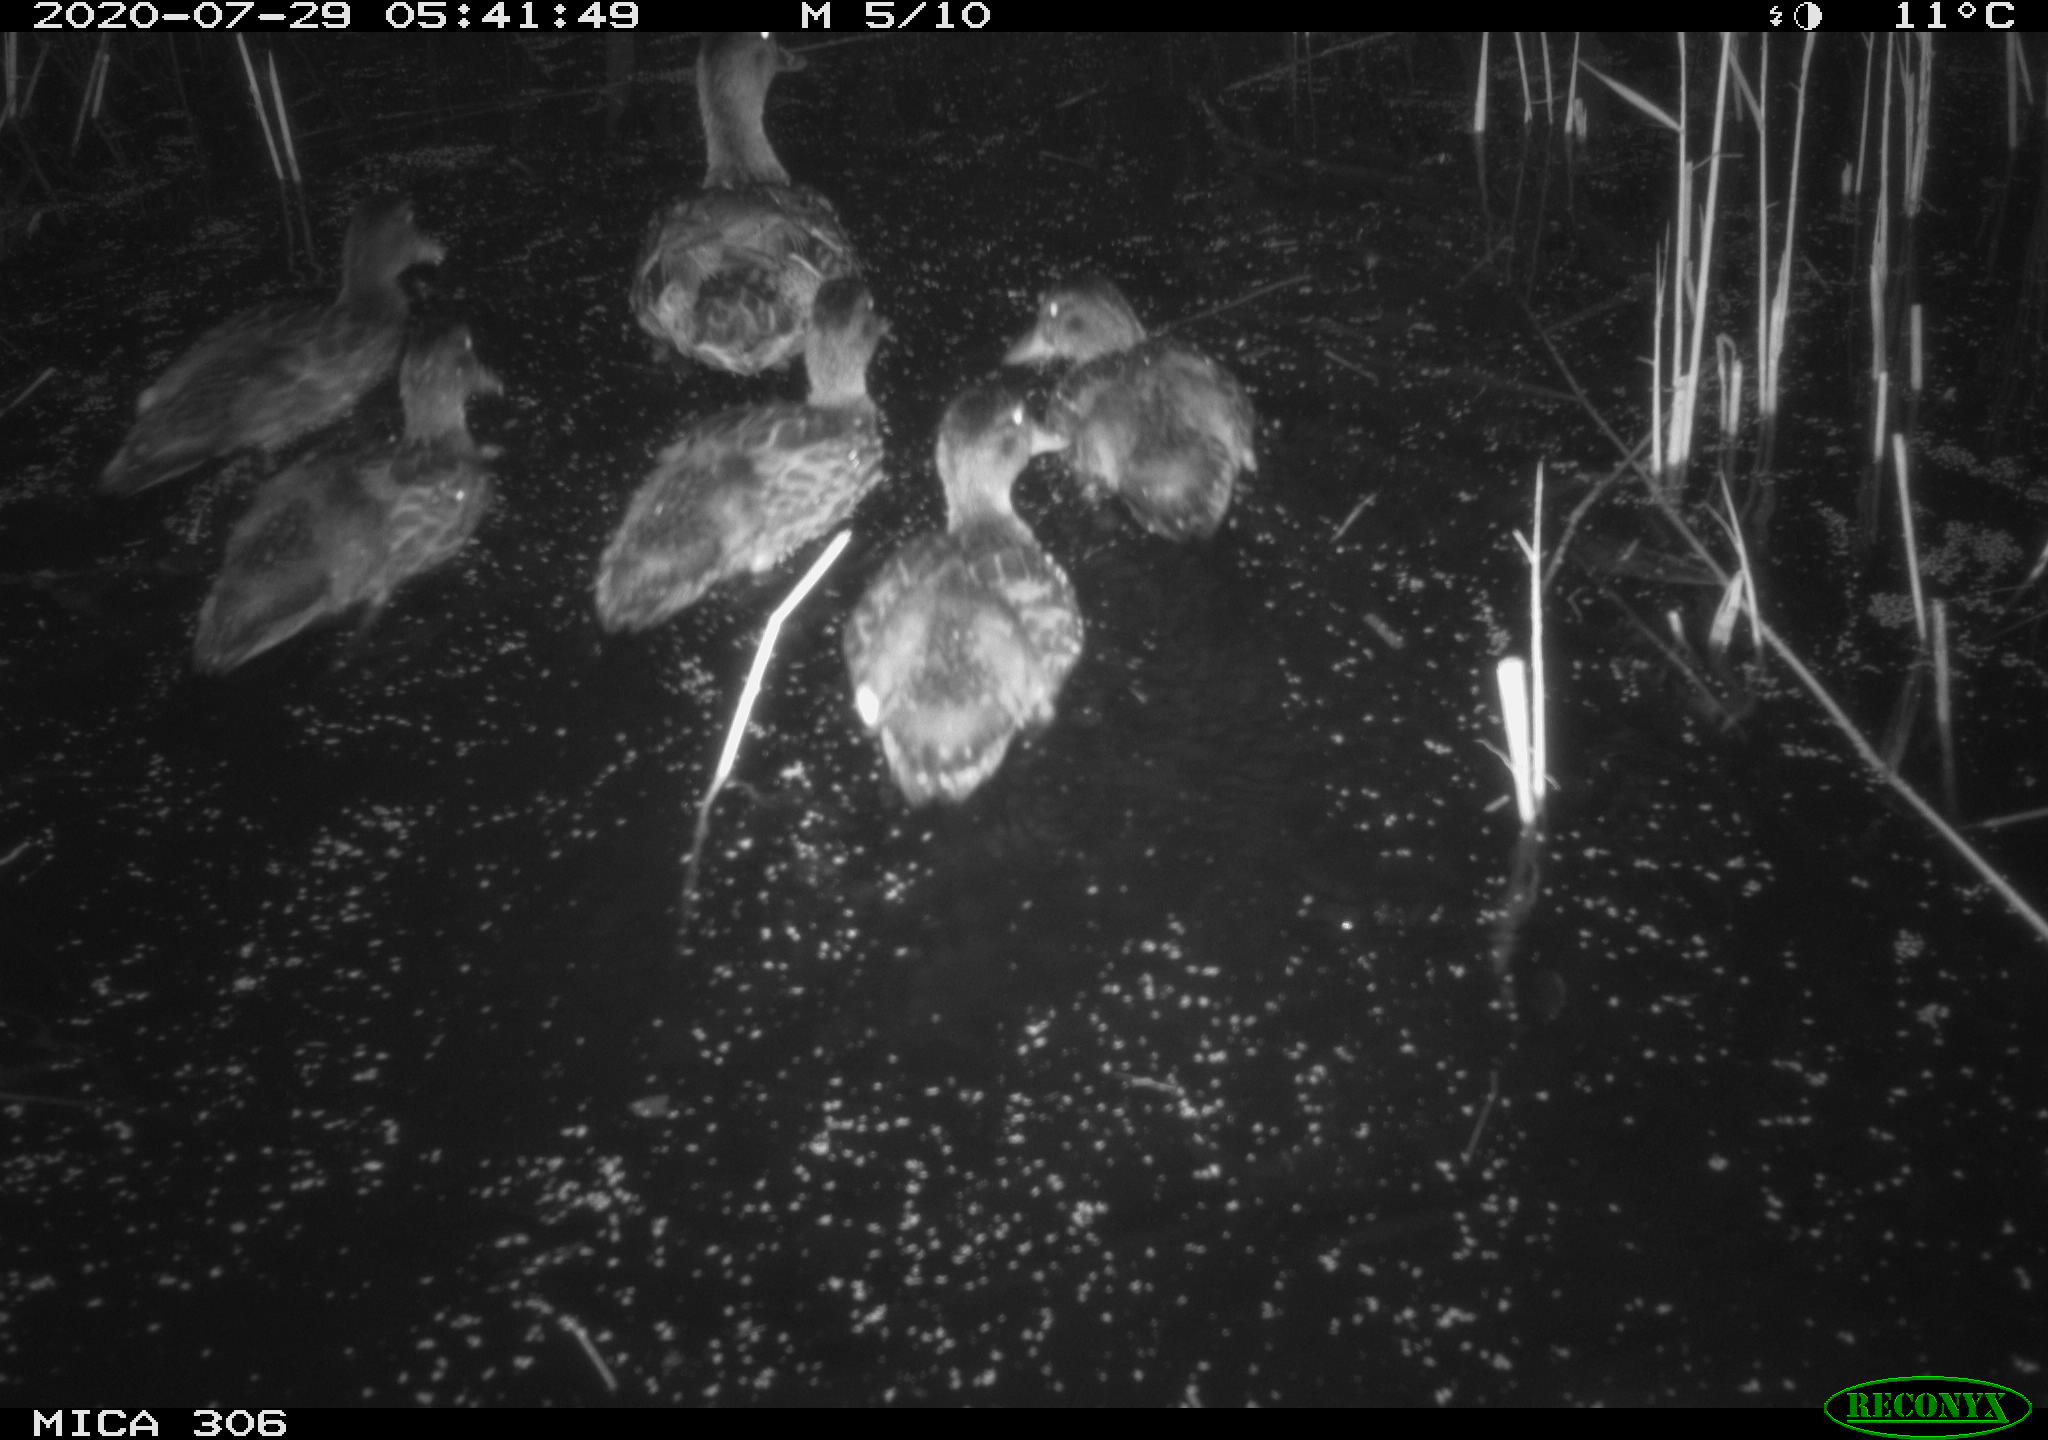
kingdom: Animalia
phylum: Chordata
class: Aves
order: Anseriformes
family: Anatidae
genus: Anas
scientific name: Anas platyrhynchos
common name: Mallard
